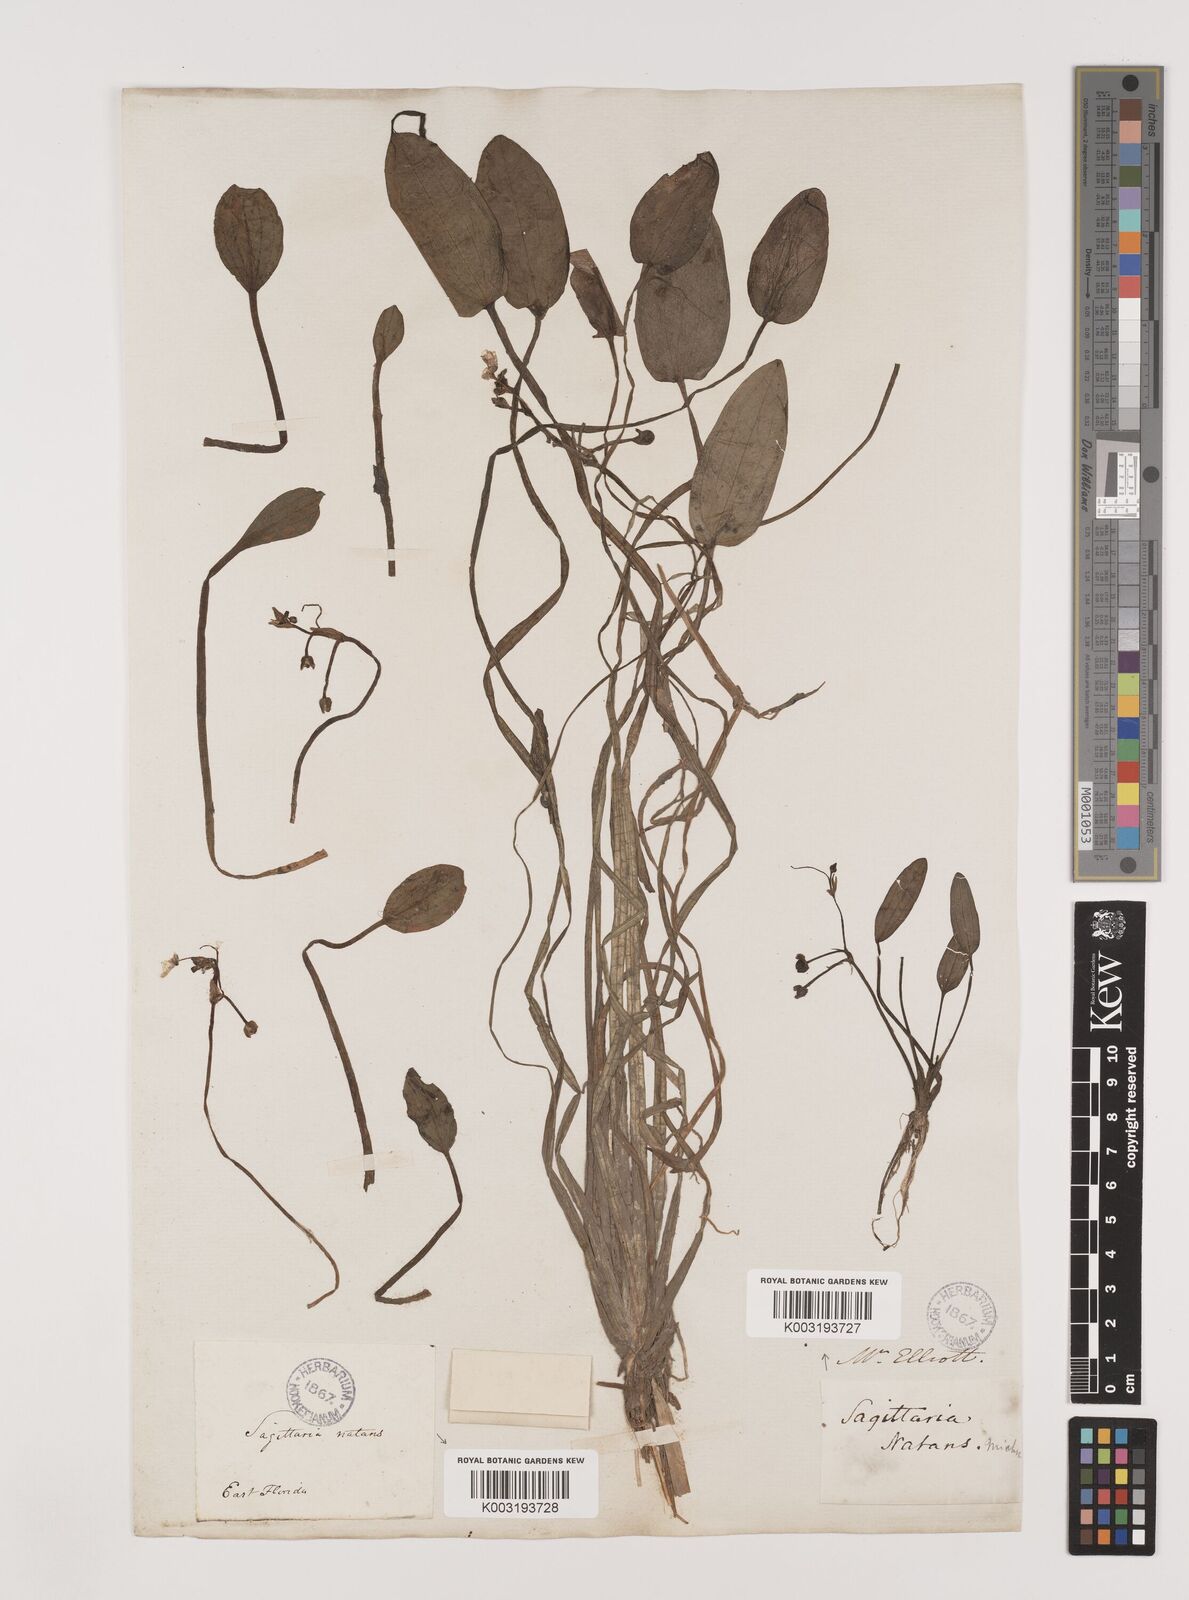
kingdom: Plantae
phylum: Tracheophyta
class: Liliopsida
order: Alismatales
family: Alismataceae
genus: Sagittaria
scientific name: Sagittaria subulata
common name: Narrow-leaved arrowhead
